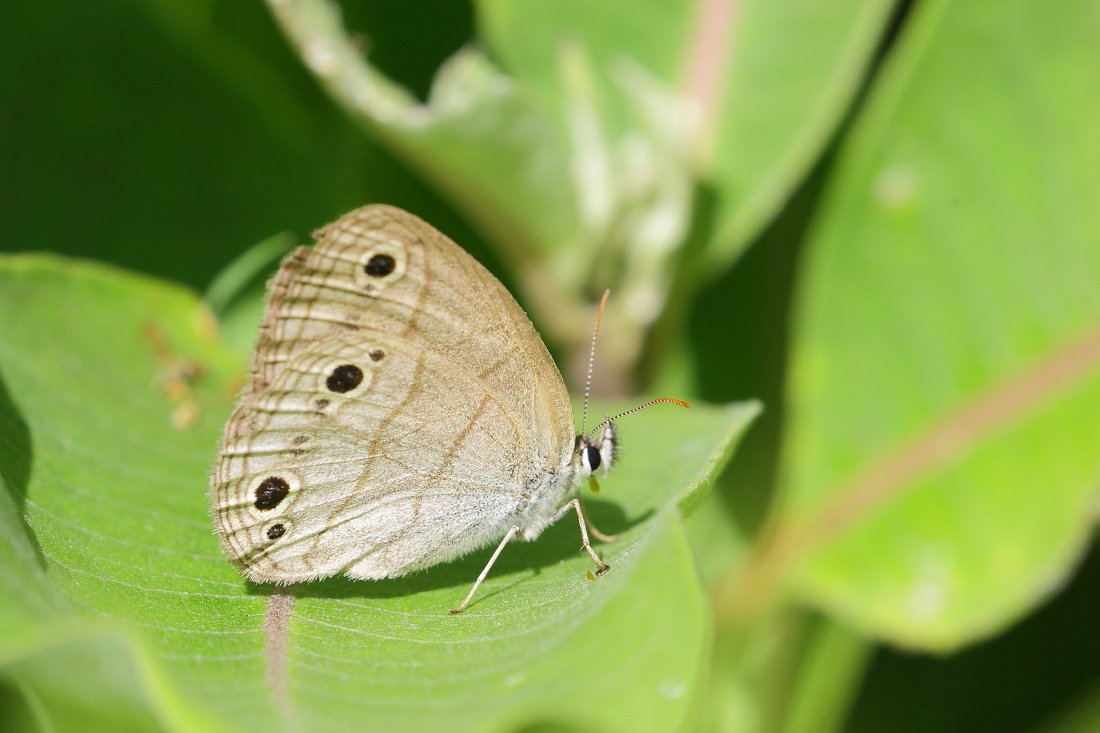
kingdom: Animalia
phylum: Arthropoda
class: Insecta
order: Lepidoptera
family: Nymphalidae
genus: Euptychia
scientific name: Euptychia cymela
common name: Little Wood Satyr
